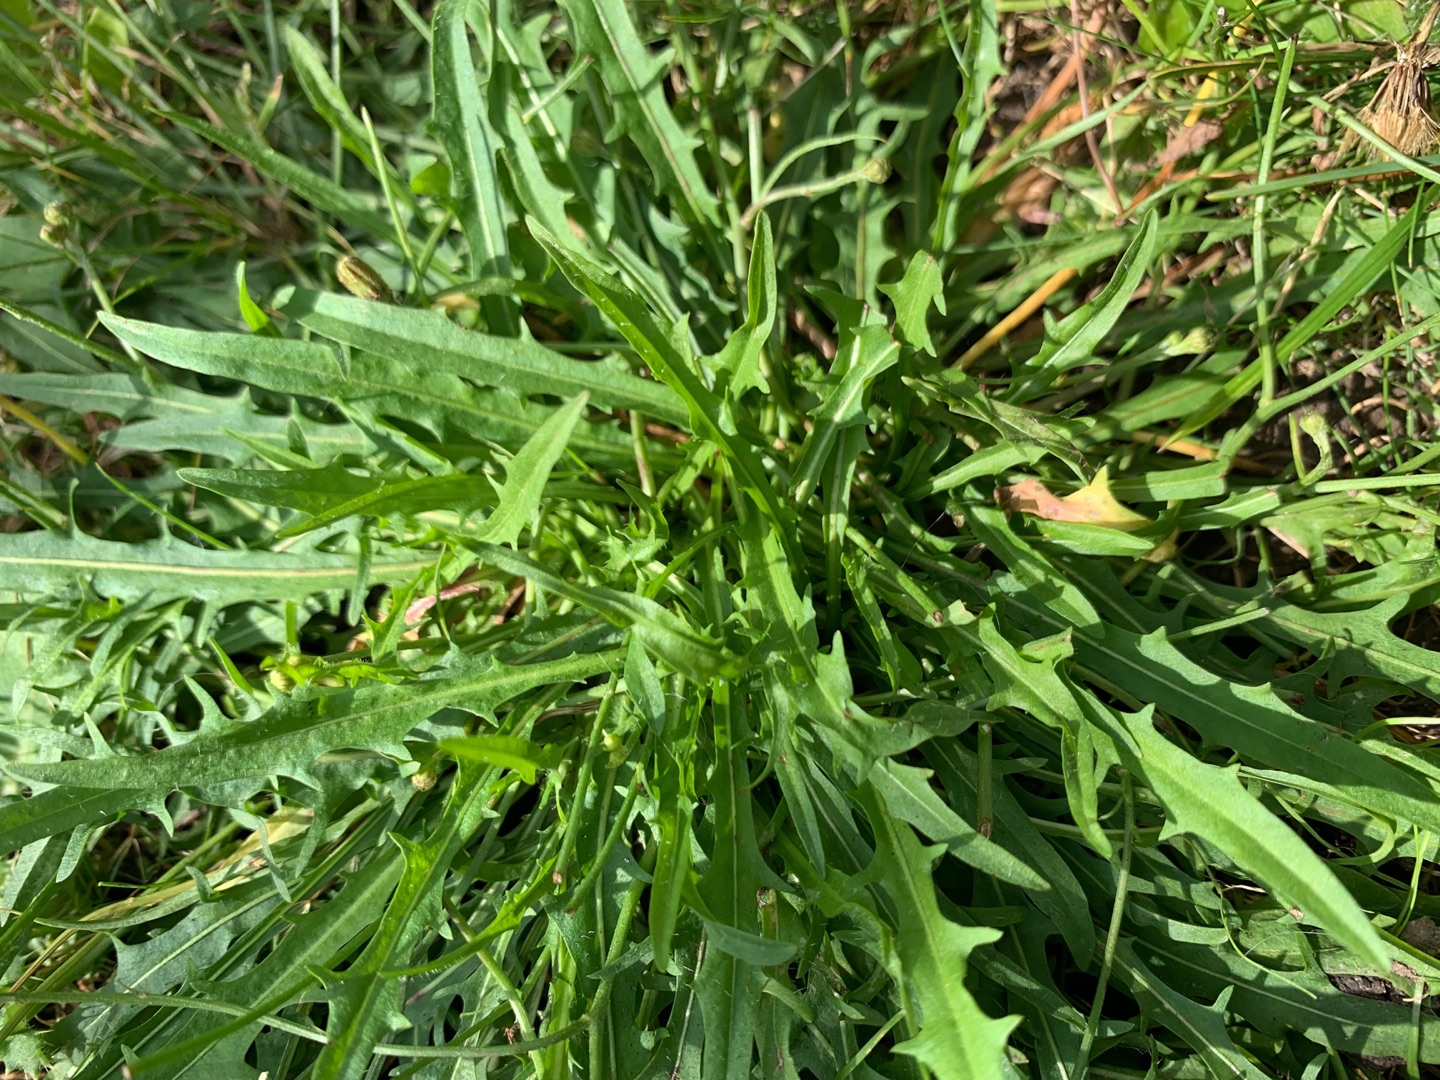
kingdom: Plantae
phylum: Tracheophyta
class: Magnoliopsida
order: Asterales
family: Asteraceae
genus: Scorzoneroides
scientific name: Scorzoneroides autumnalis
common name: Høst-borst
